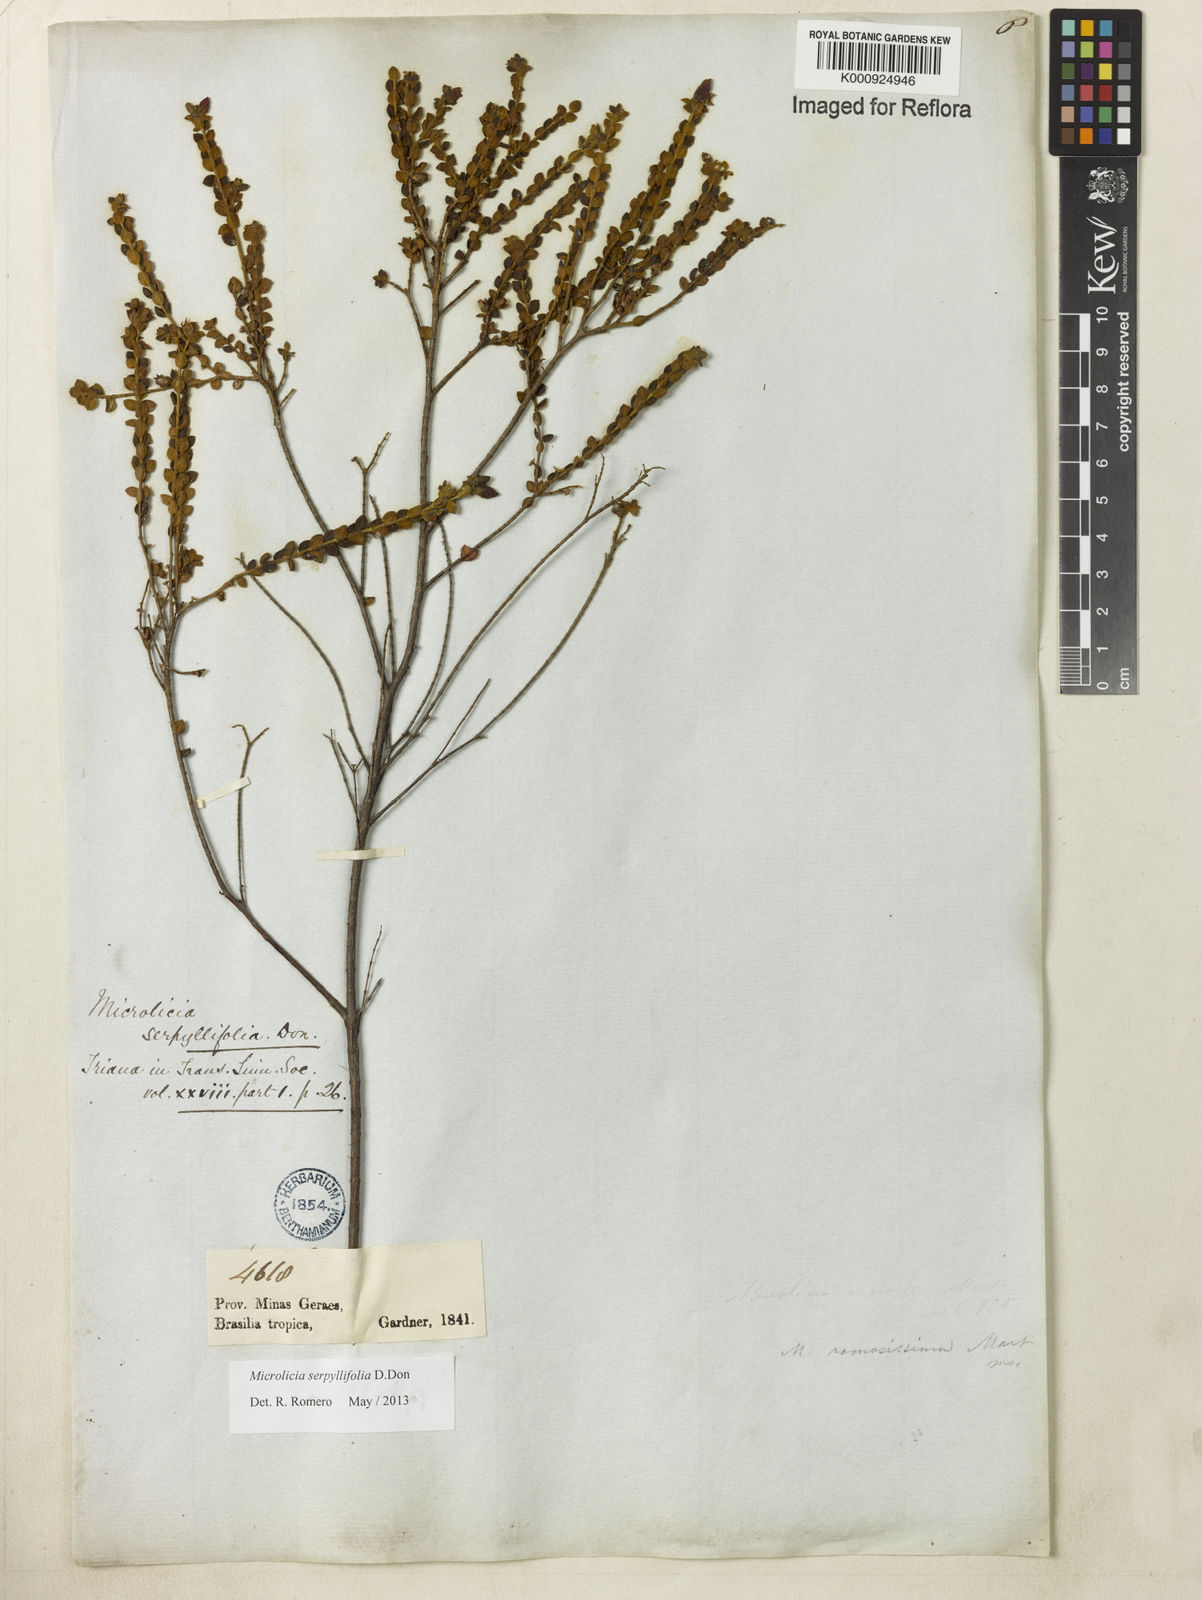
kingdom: Plantae
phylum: Tracheophyta
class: Magnoliopsida
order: Myrtales
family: Melastomataceae
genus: Microlicia
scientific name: Microlicia fulva
